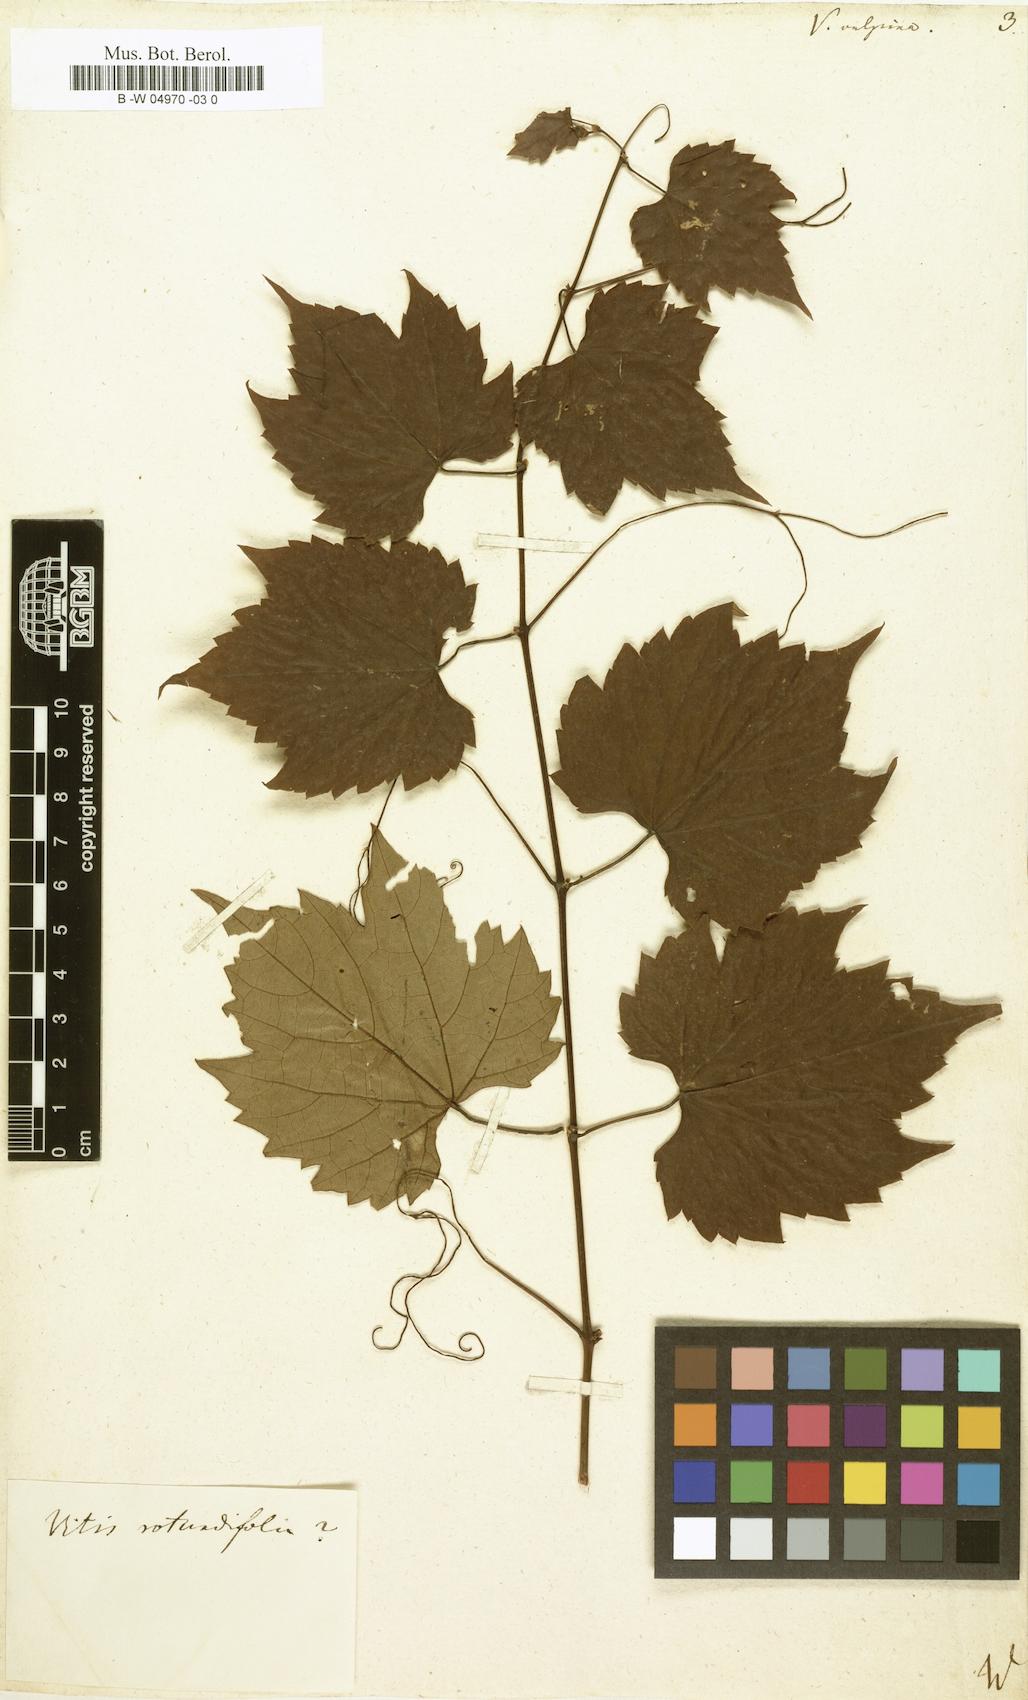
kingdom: Plantae
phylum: Tracheophyta
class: Magnoliopsida
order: Vitales
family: Vitaceae
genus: Vitis
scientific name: Vitis vulpina
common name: Frost grape
